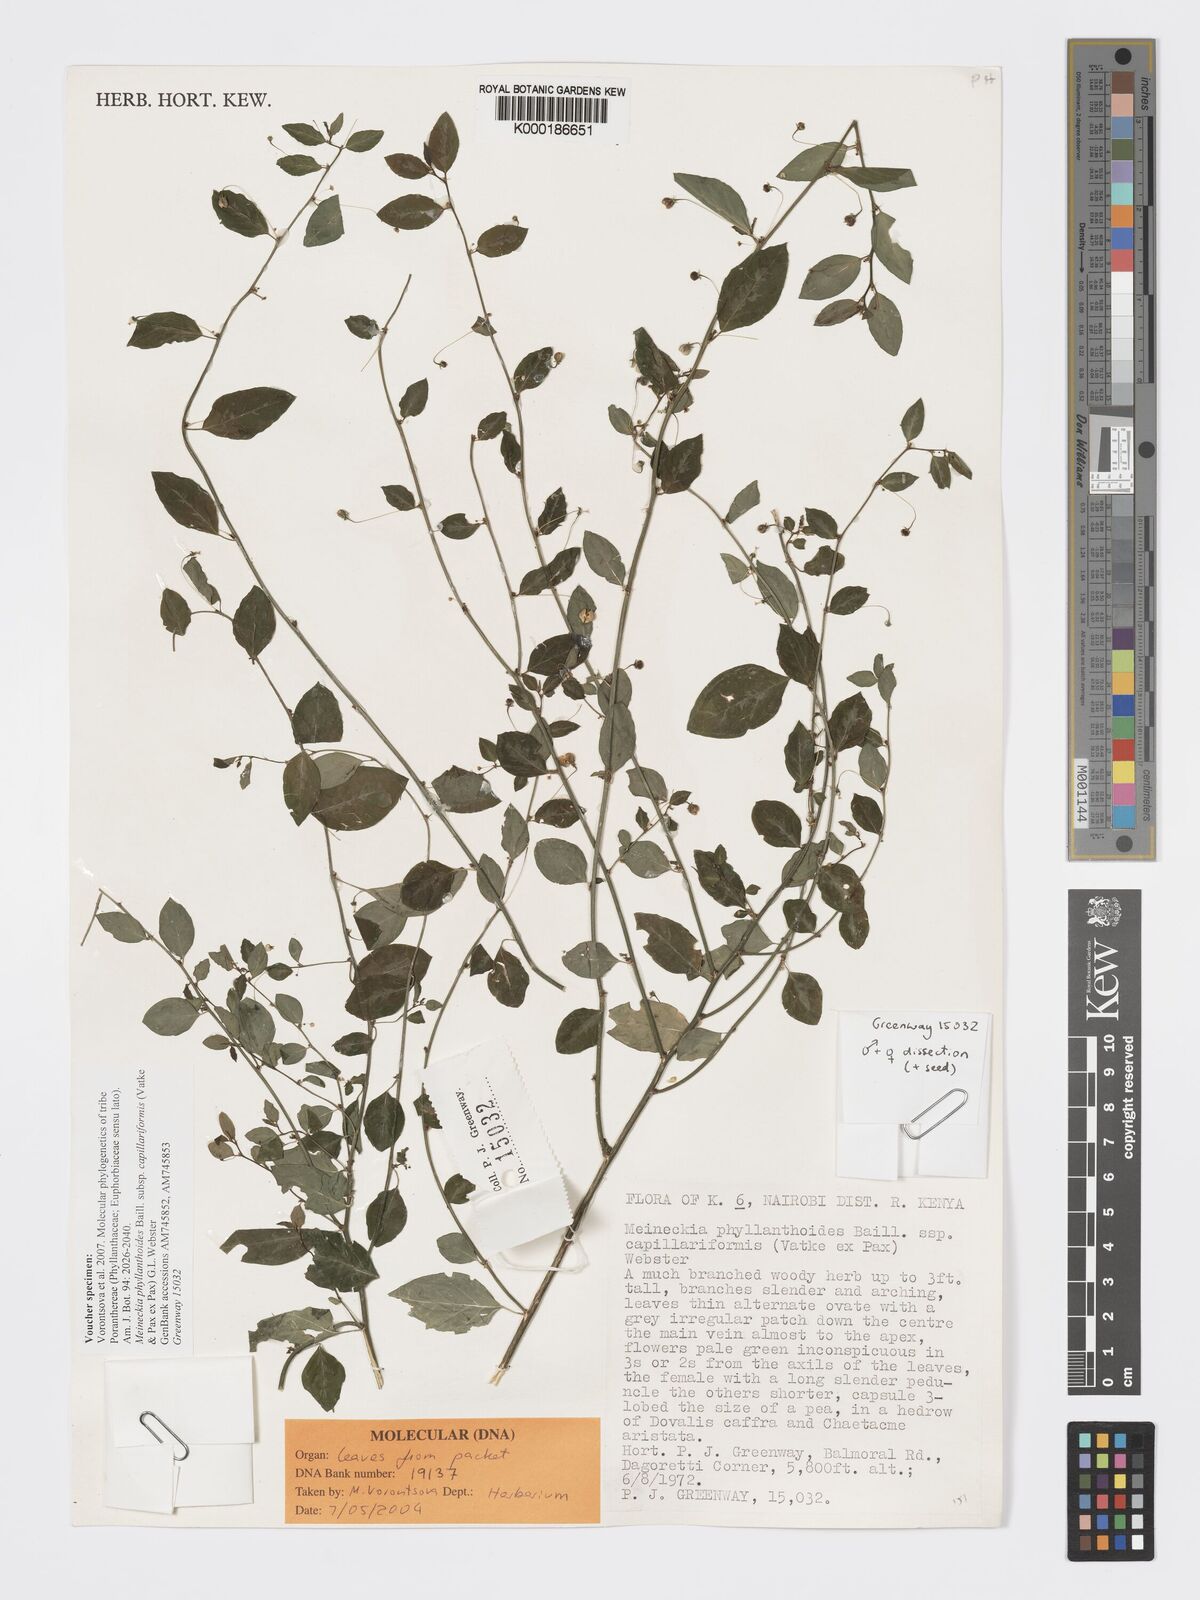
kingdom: Plantae
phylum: Tracheophyta
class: Magnoliopsida
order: Malpighiales
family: Phyllanthaceae
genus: Meineckia
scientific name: Meineckia phyllanthoides
